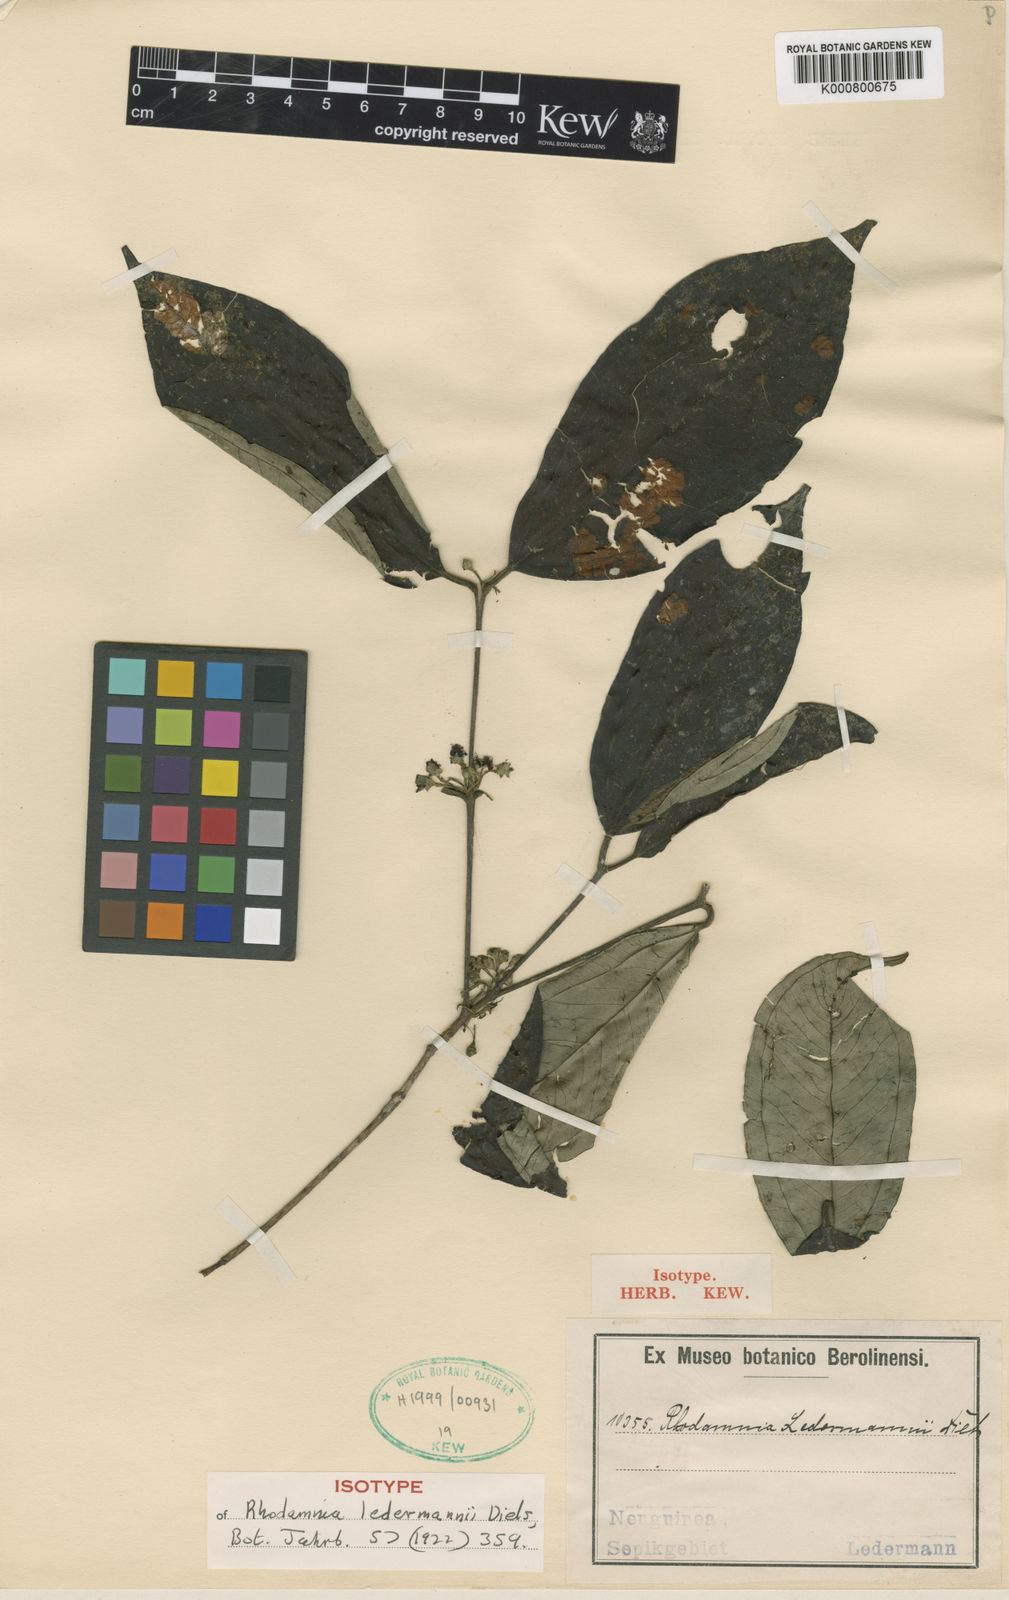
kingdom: Plantae
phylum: Tracheophyta
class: Magnoliopsida
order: Myrtales
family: Myrtaceae
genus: Rhodamnia
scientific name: Rhodamnia sepicana
